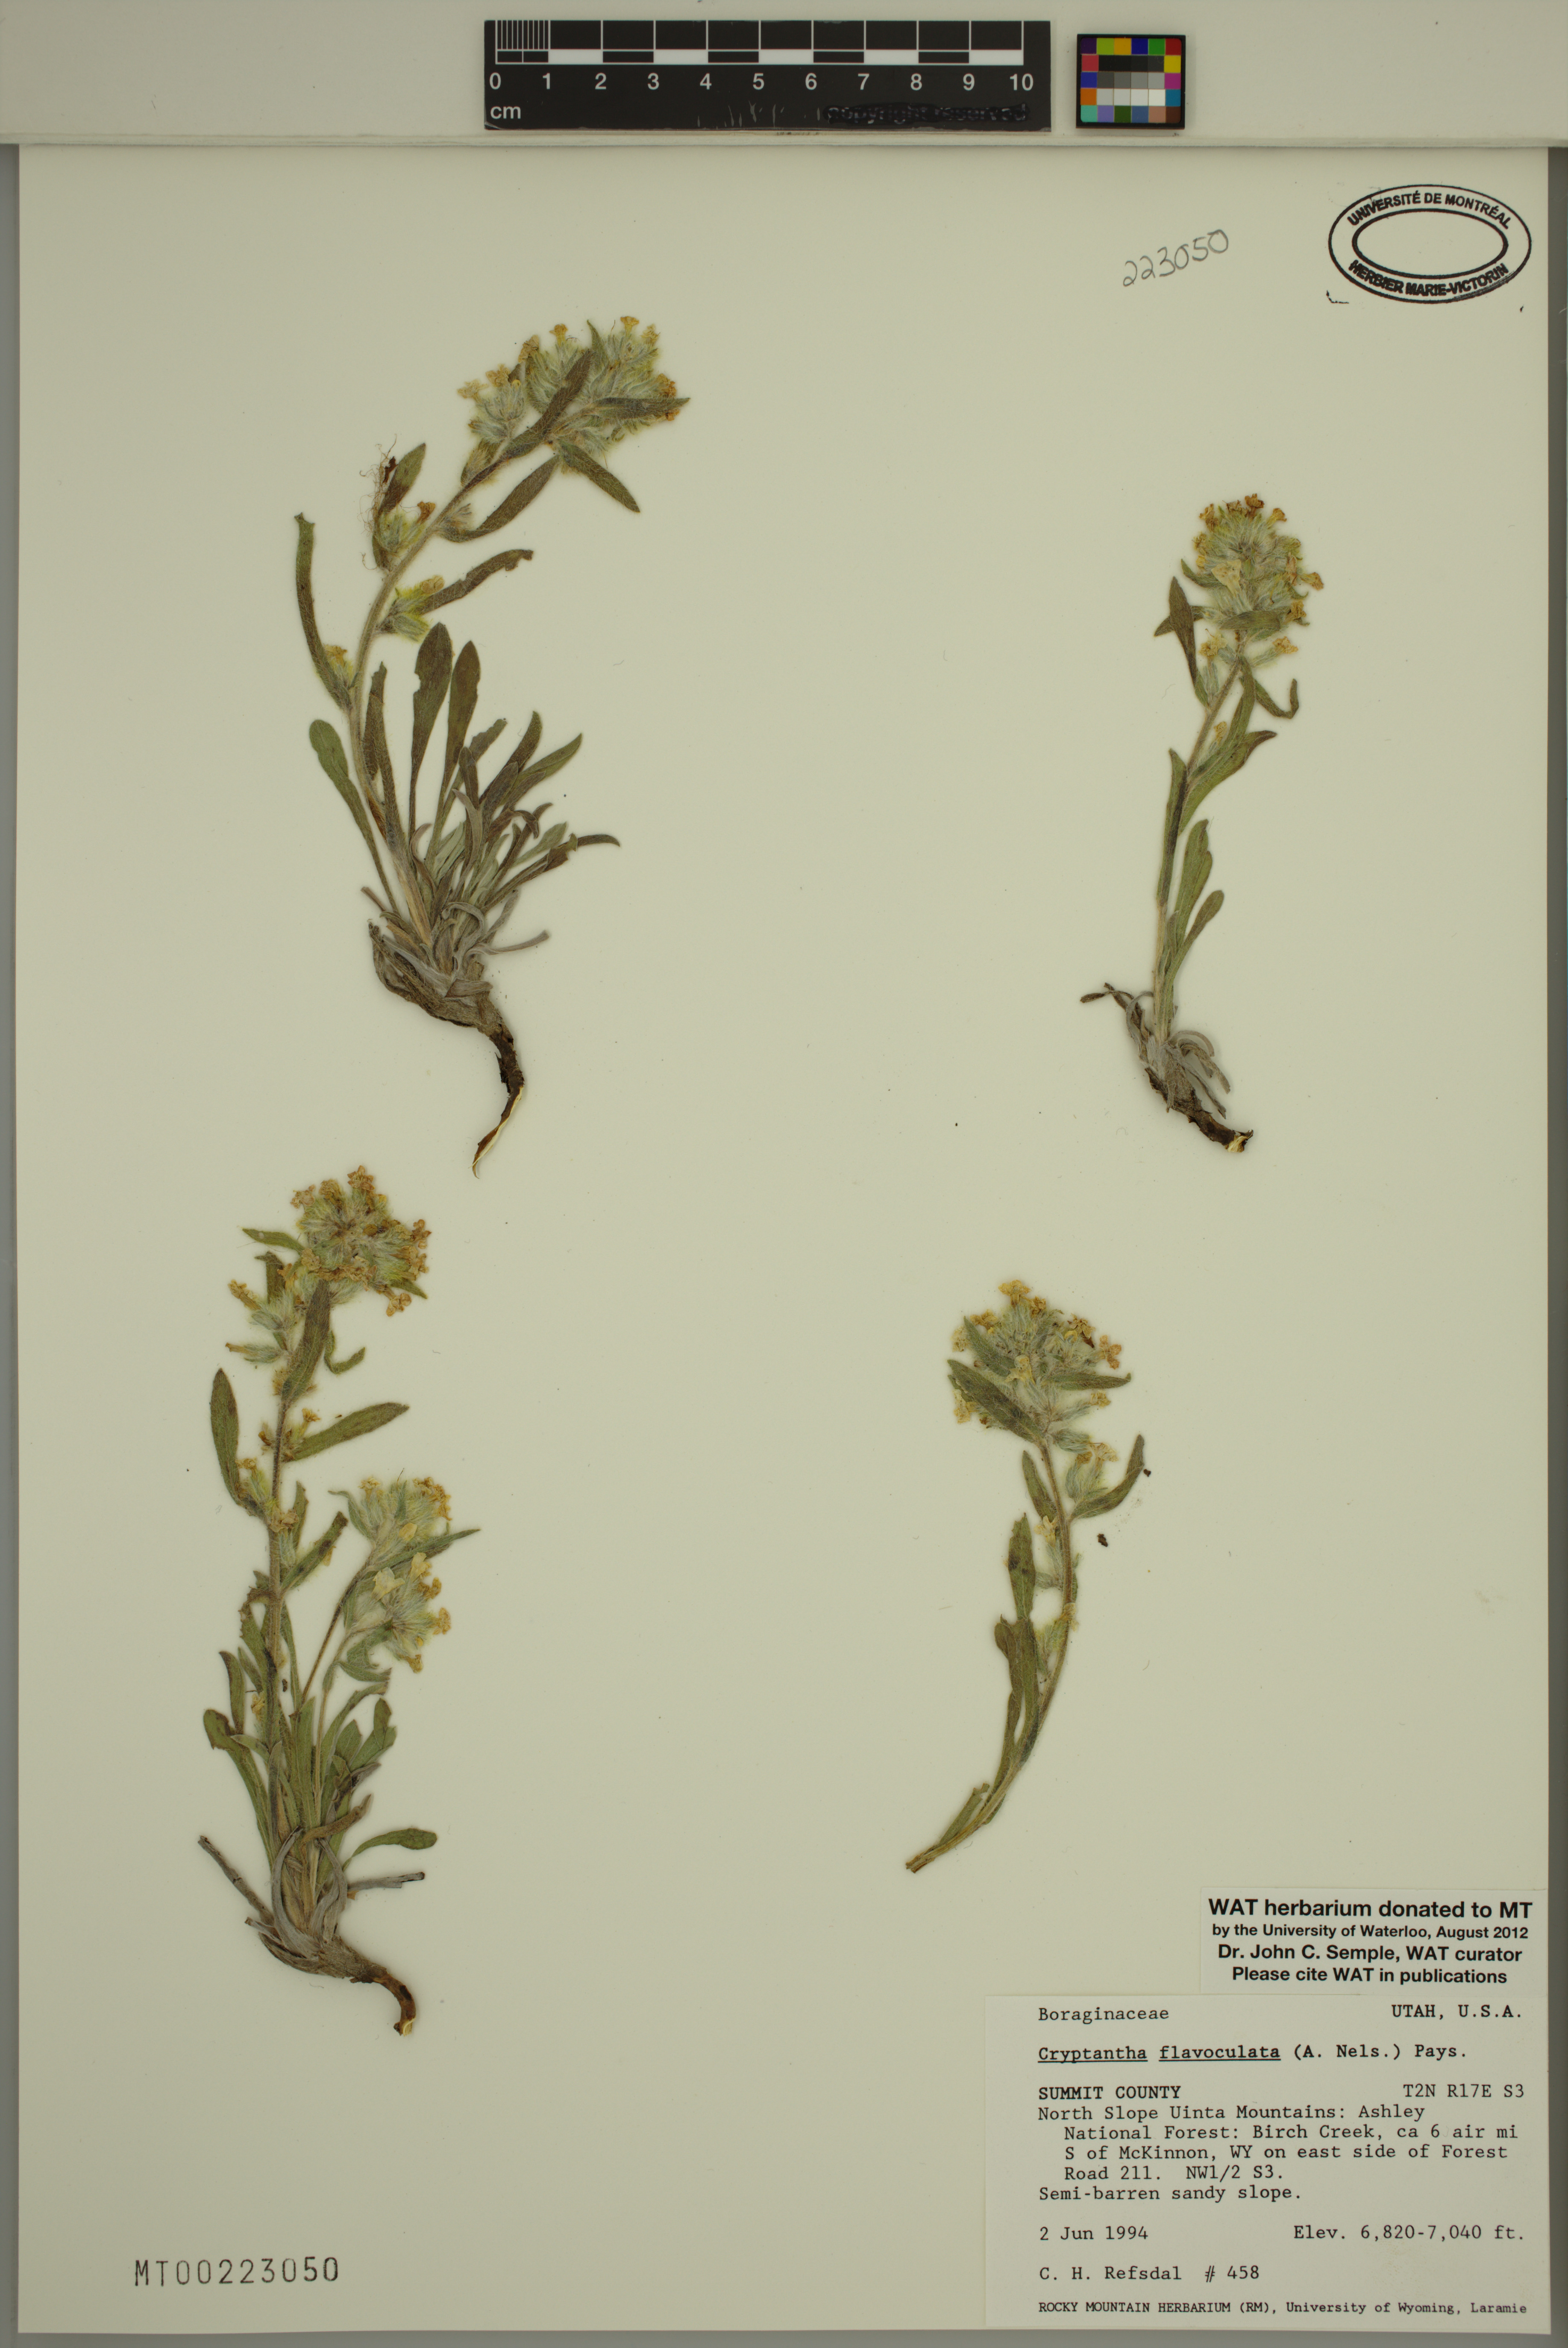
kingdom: Plantae
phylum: Tracheophyta
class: Magnoliopsida
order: Boraginales
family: Boraginaceae
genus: Oreocarya
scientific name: Oreocarya flavoculata
